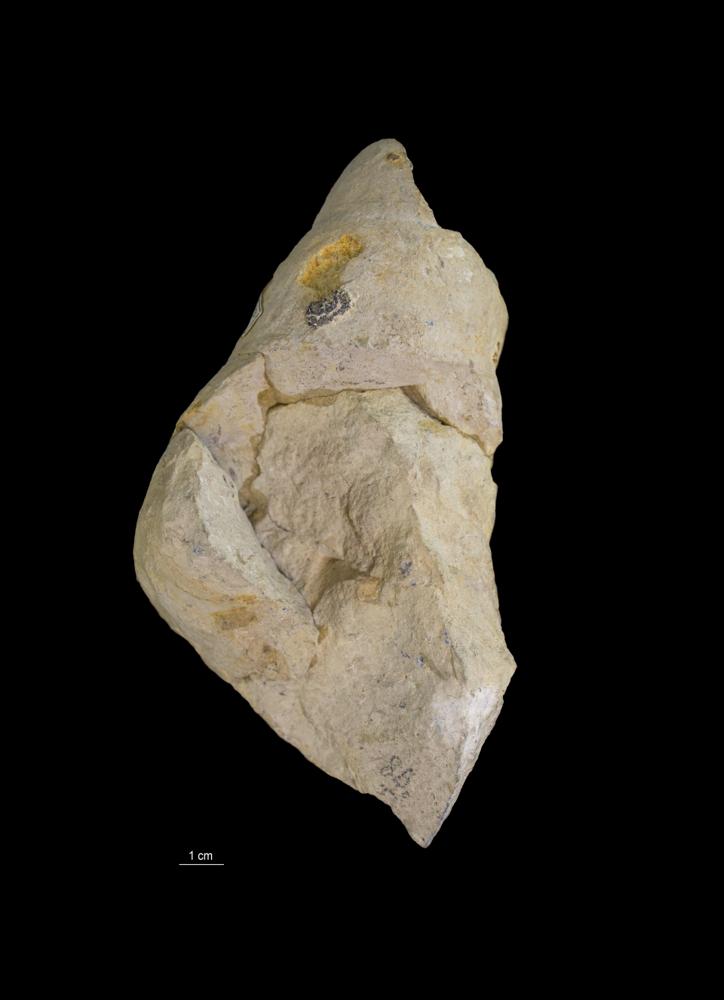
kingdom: Animalia
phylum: Mollusca
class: Gastropoda
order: Pleurotomariida
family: Murchisoniidae
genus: Murchisonia
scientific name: Murchisonia insignis
